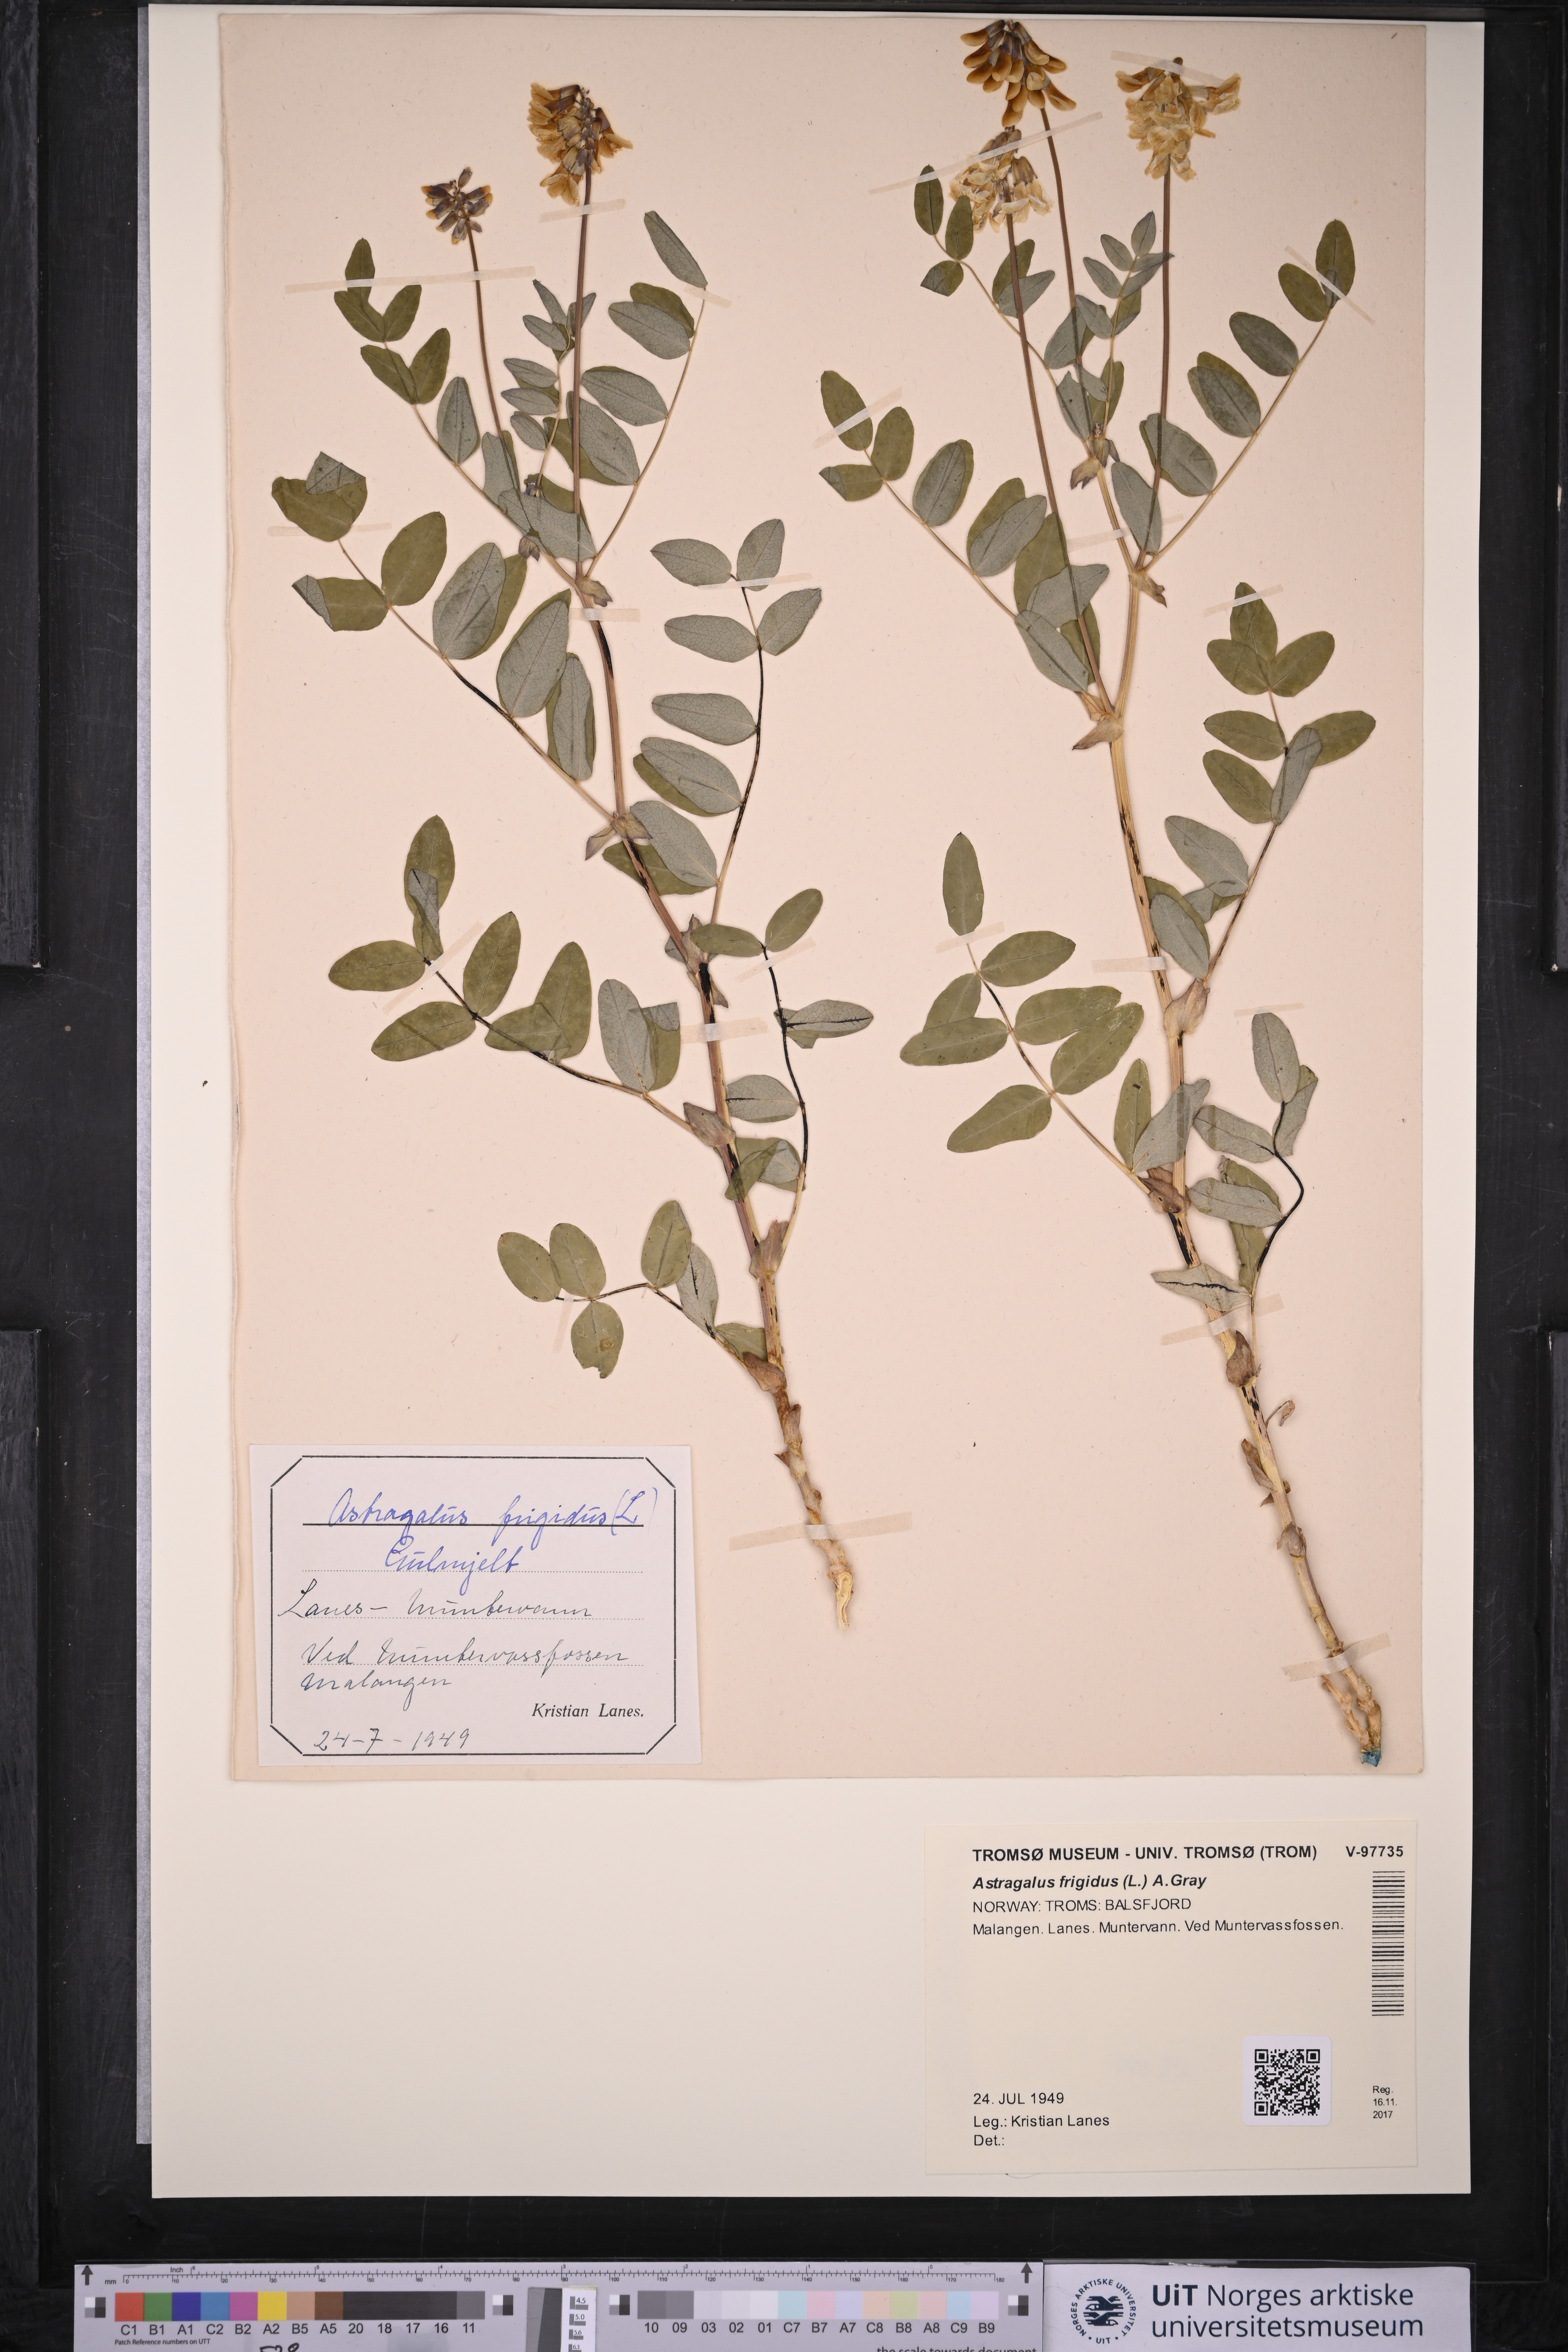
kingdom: Plantae
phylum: Tracheophyta
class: Magnoliopsida
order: Fabales
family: Fabaceae
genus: Astragalus
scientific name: Astragalus frigidus
